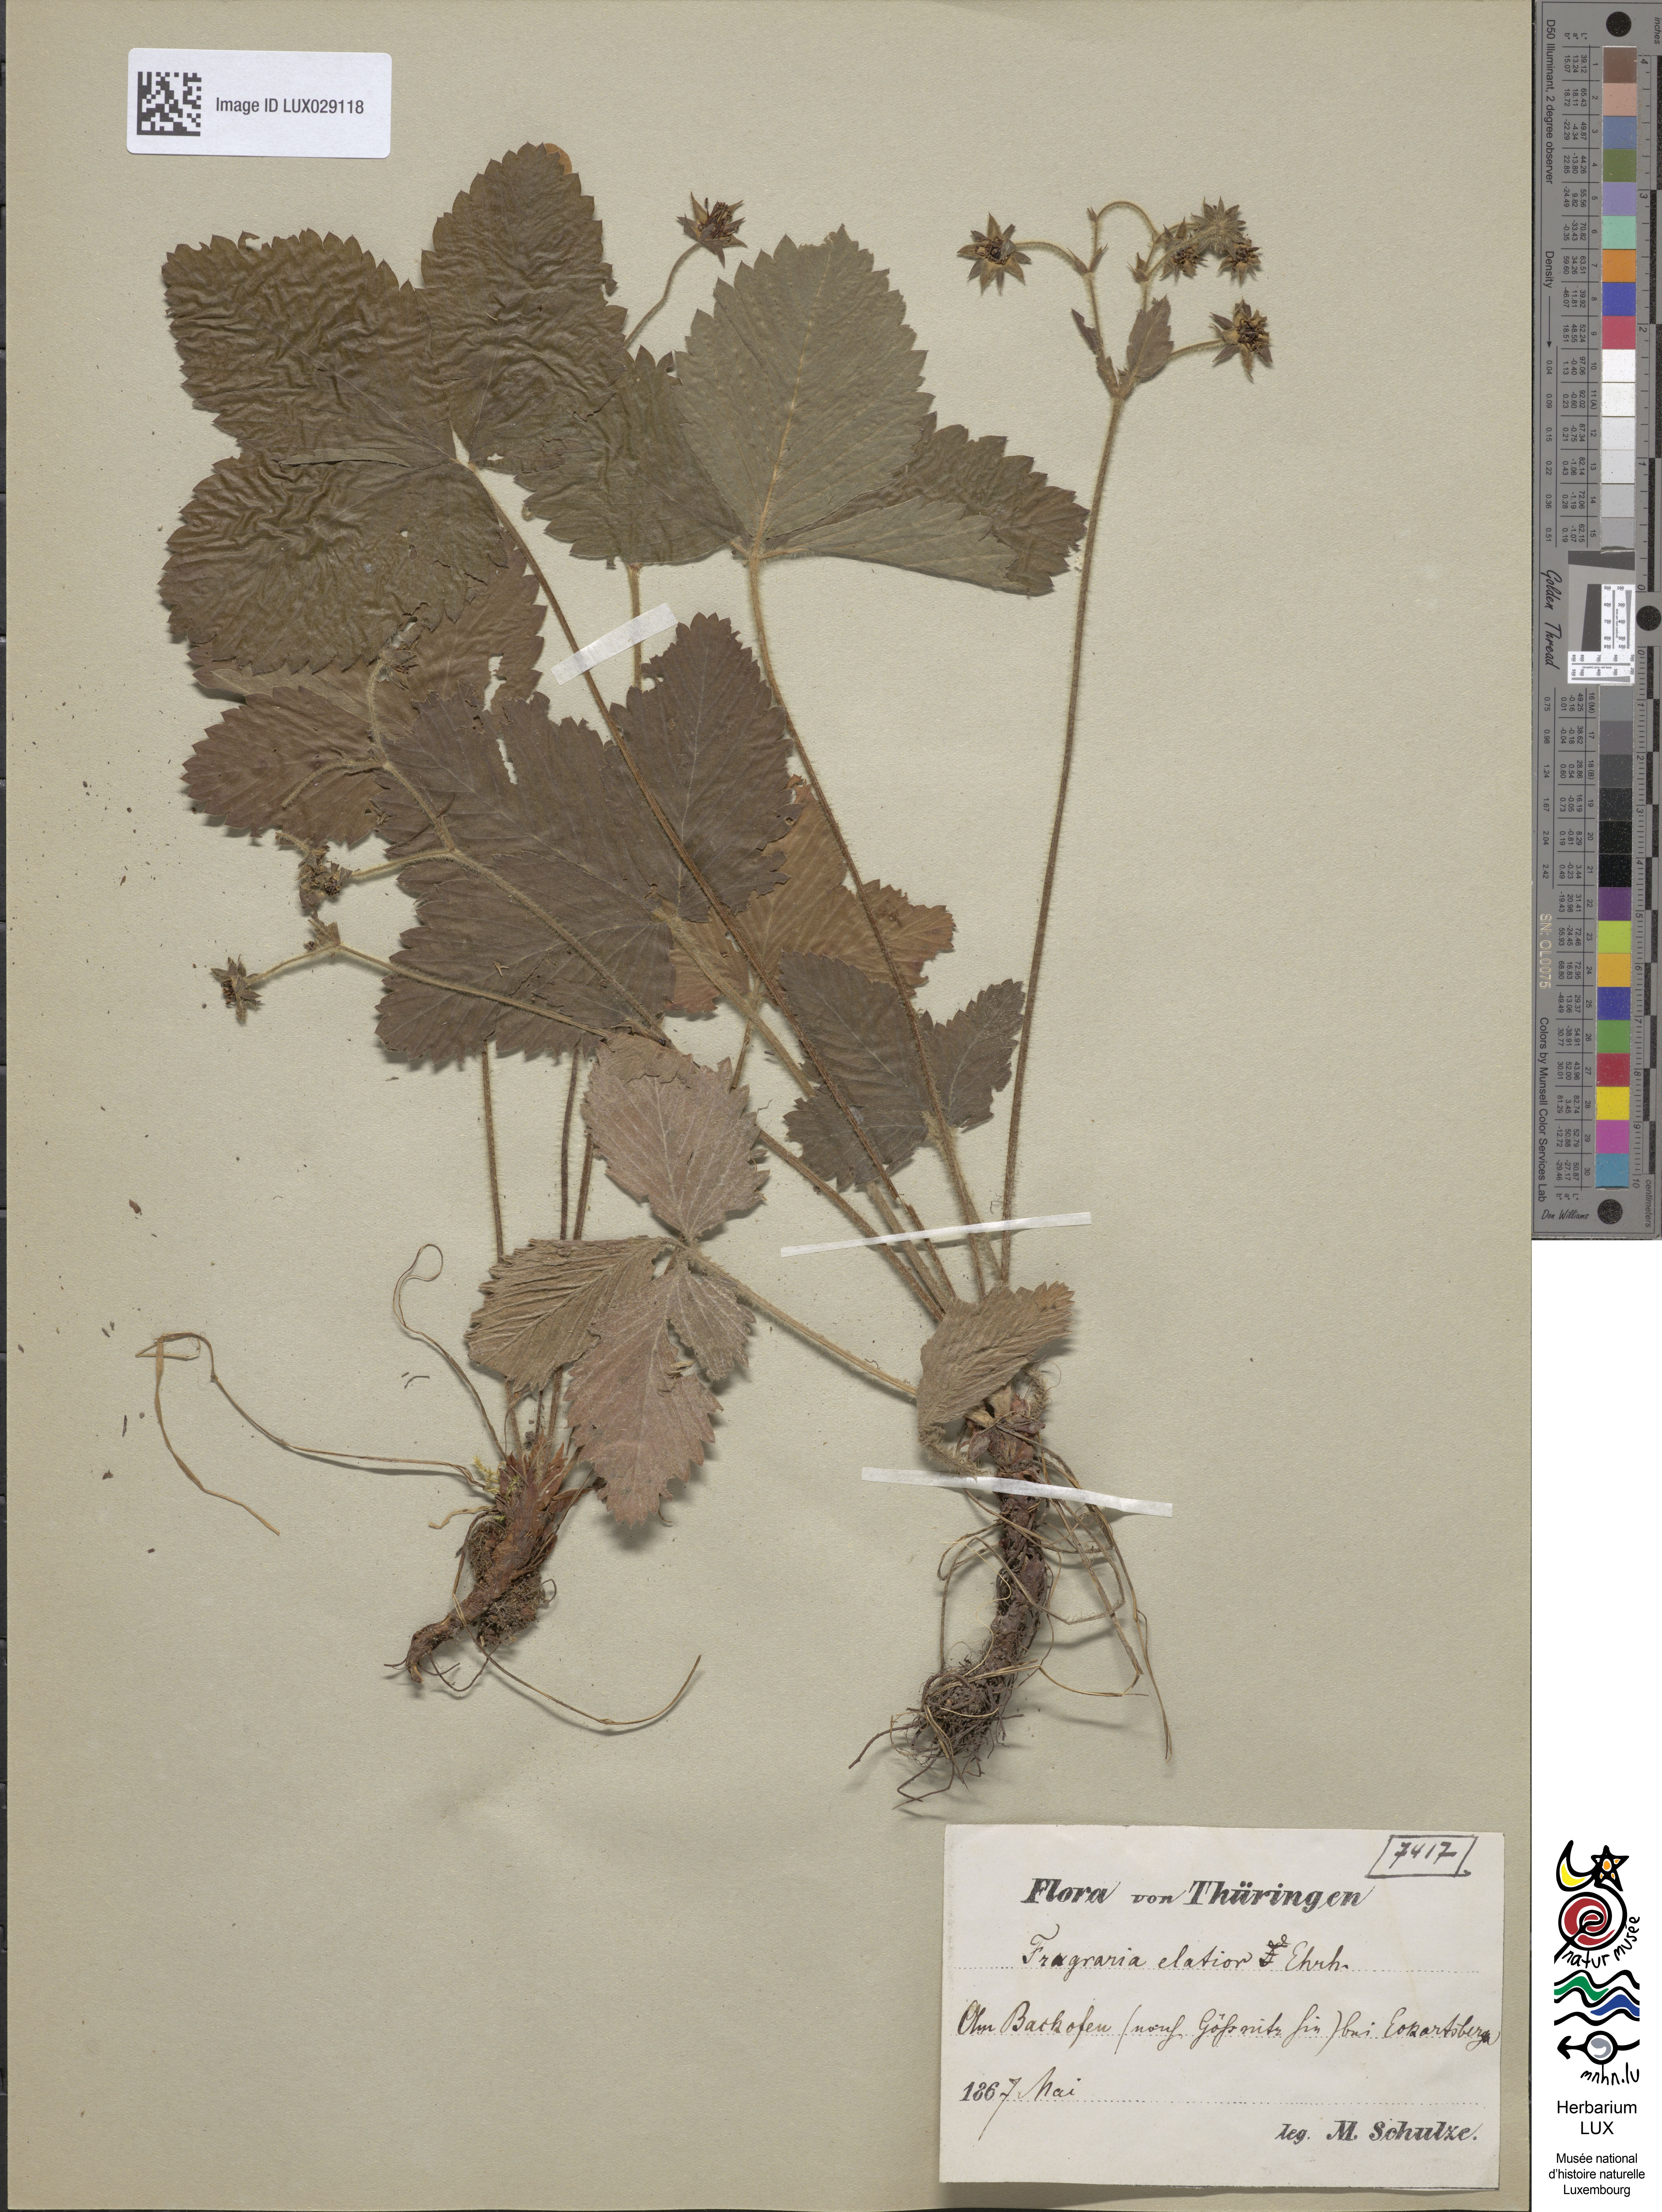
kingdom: Plantae
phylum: Tracheophyta
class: Magnoliopsida
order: Rosales
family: Rosaceae
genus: Fragaria
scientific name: Fragaria moschata
